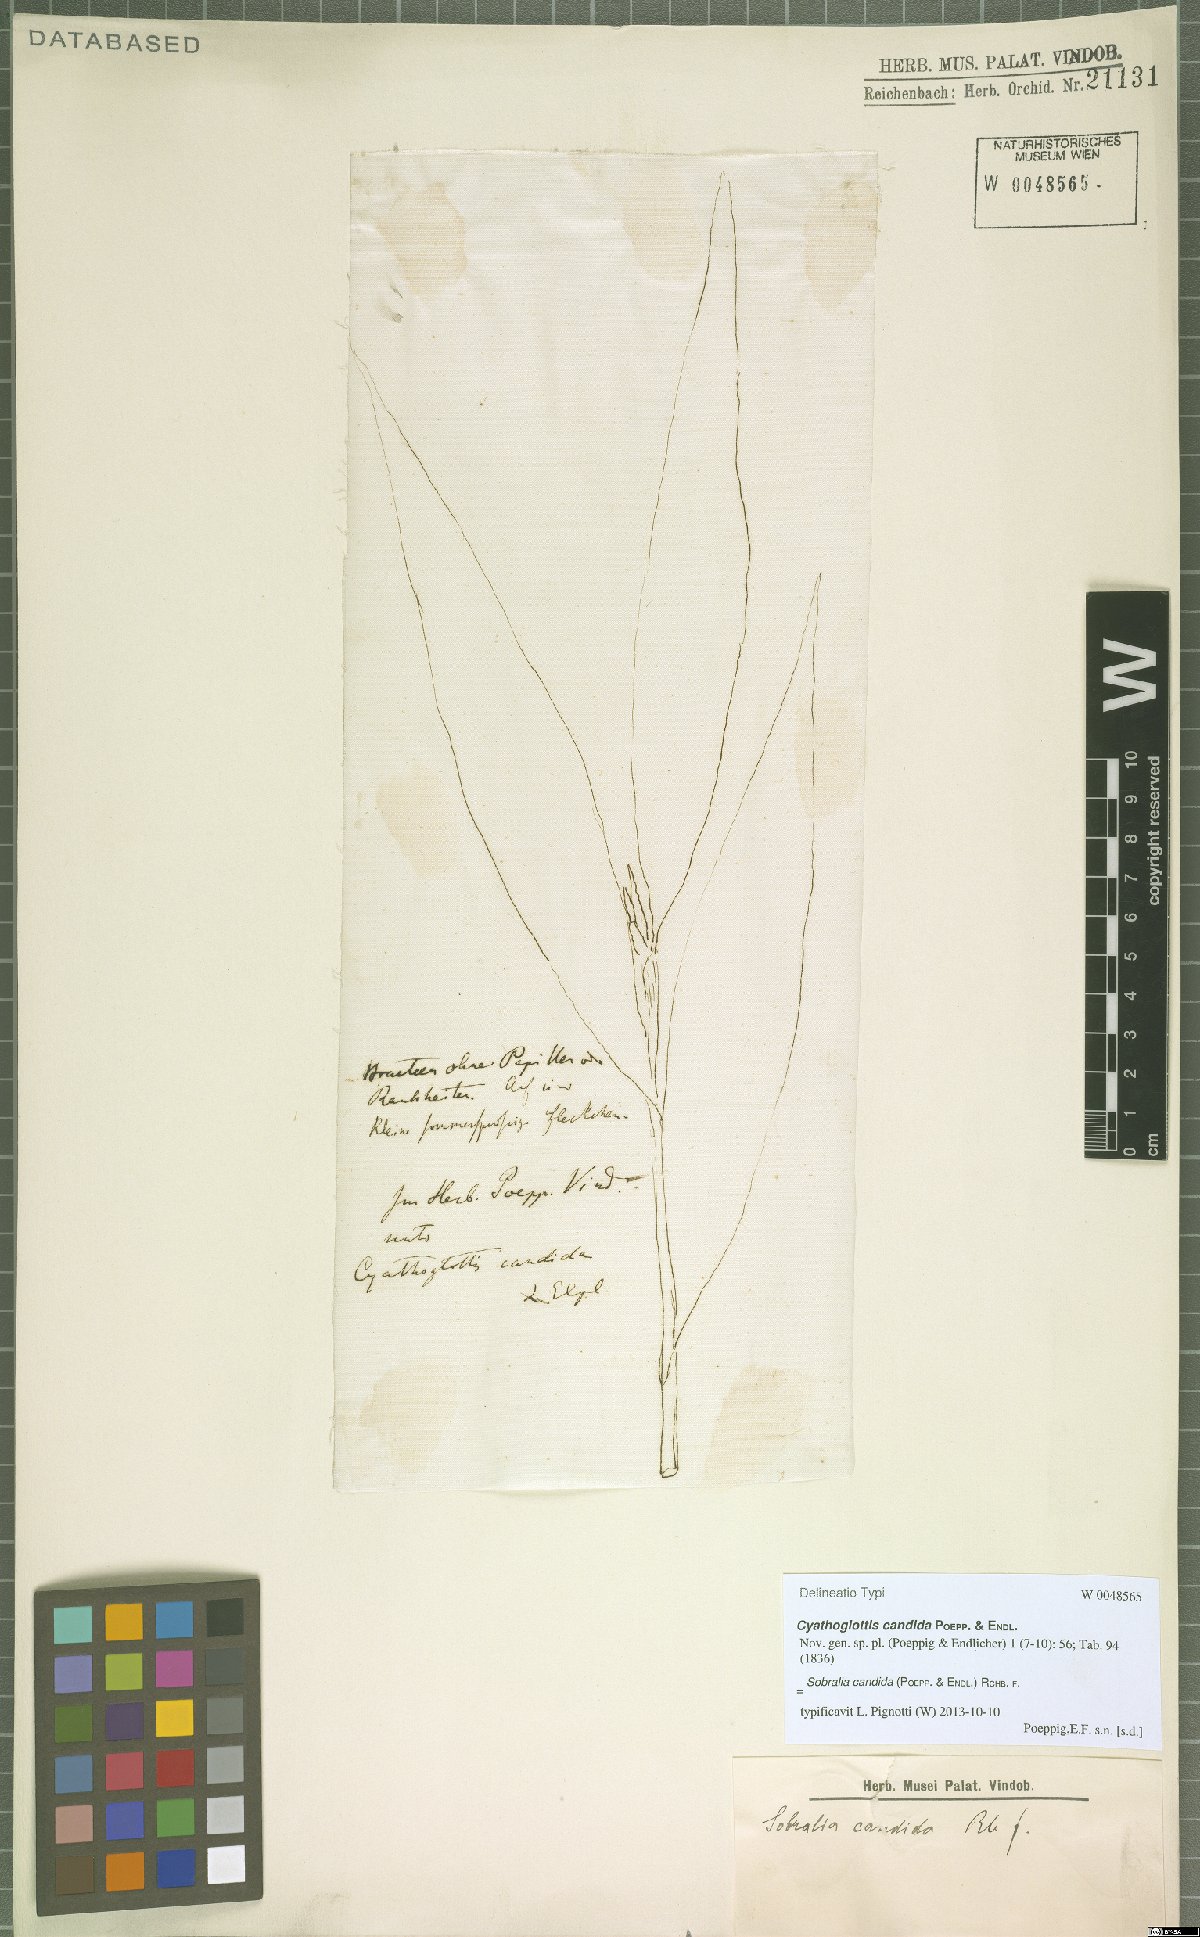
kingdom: Plantae
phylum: Tracheophyta
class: Liliopsida
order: Asparagales
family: Orchidaceae
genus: Sobralia
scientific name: Sobralia candida
